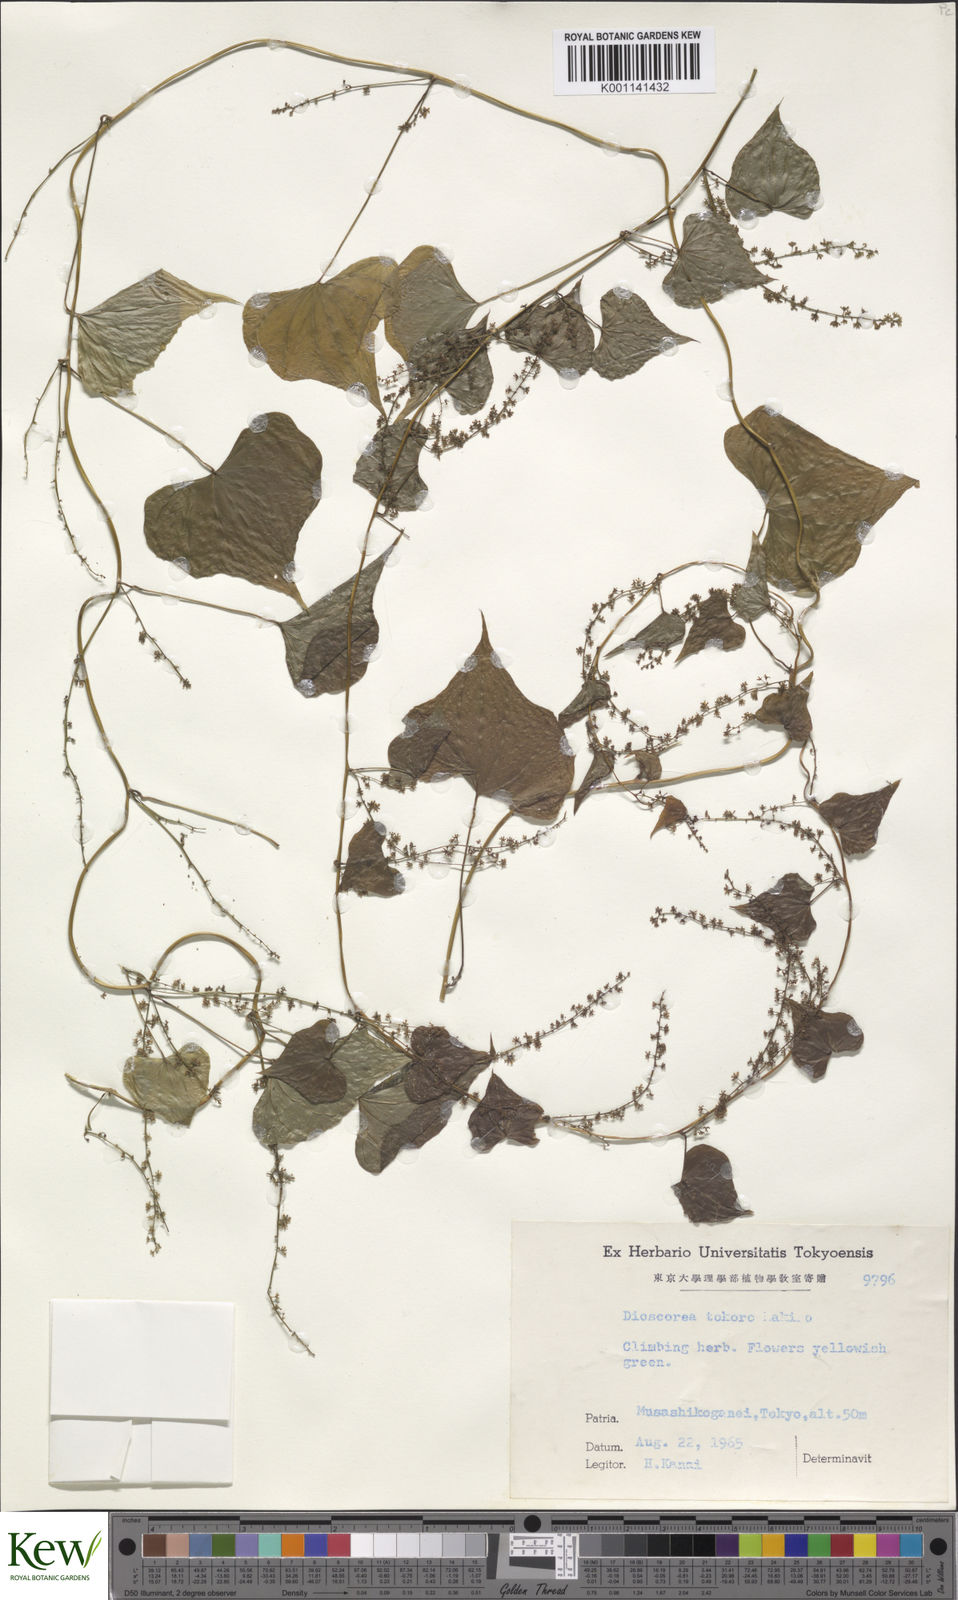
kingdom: Plantae
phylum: Tracheophyta
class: Liliopsida
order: Dioscoreales
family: Dioscoreaceae
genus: Dioscorea
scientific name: Dioscorea tokoro
